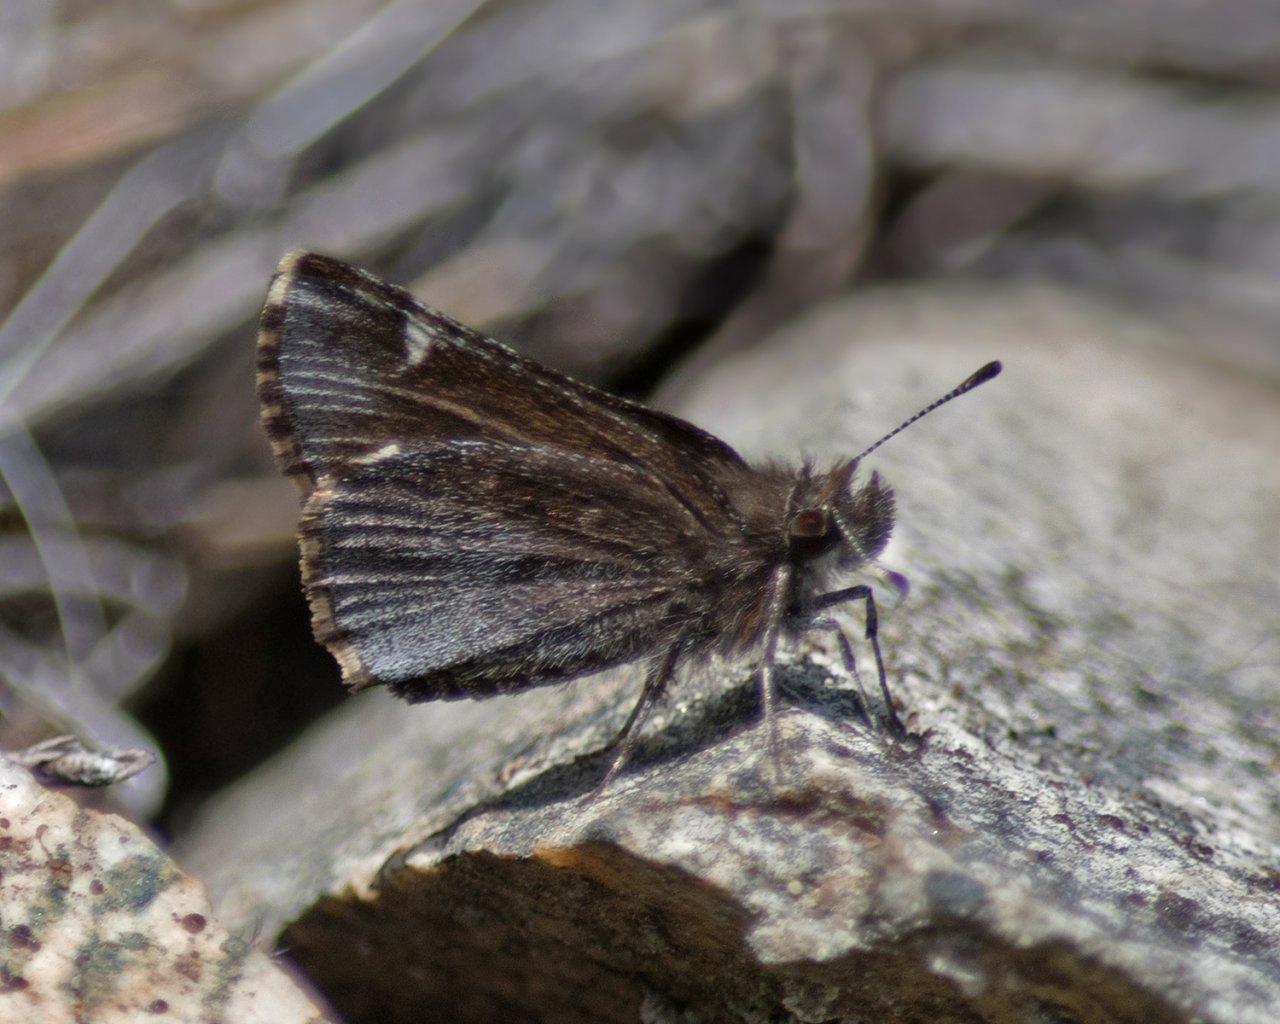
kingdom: Animalia
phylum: Arthropoda
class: Insecta
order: Lepidoptera
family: Hesperiidae
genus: Mastor
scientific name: Mastor vialis
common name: Common Roadside-Skipper
